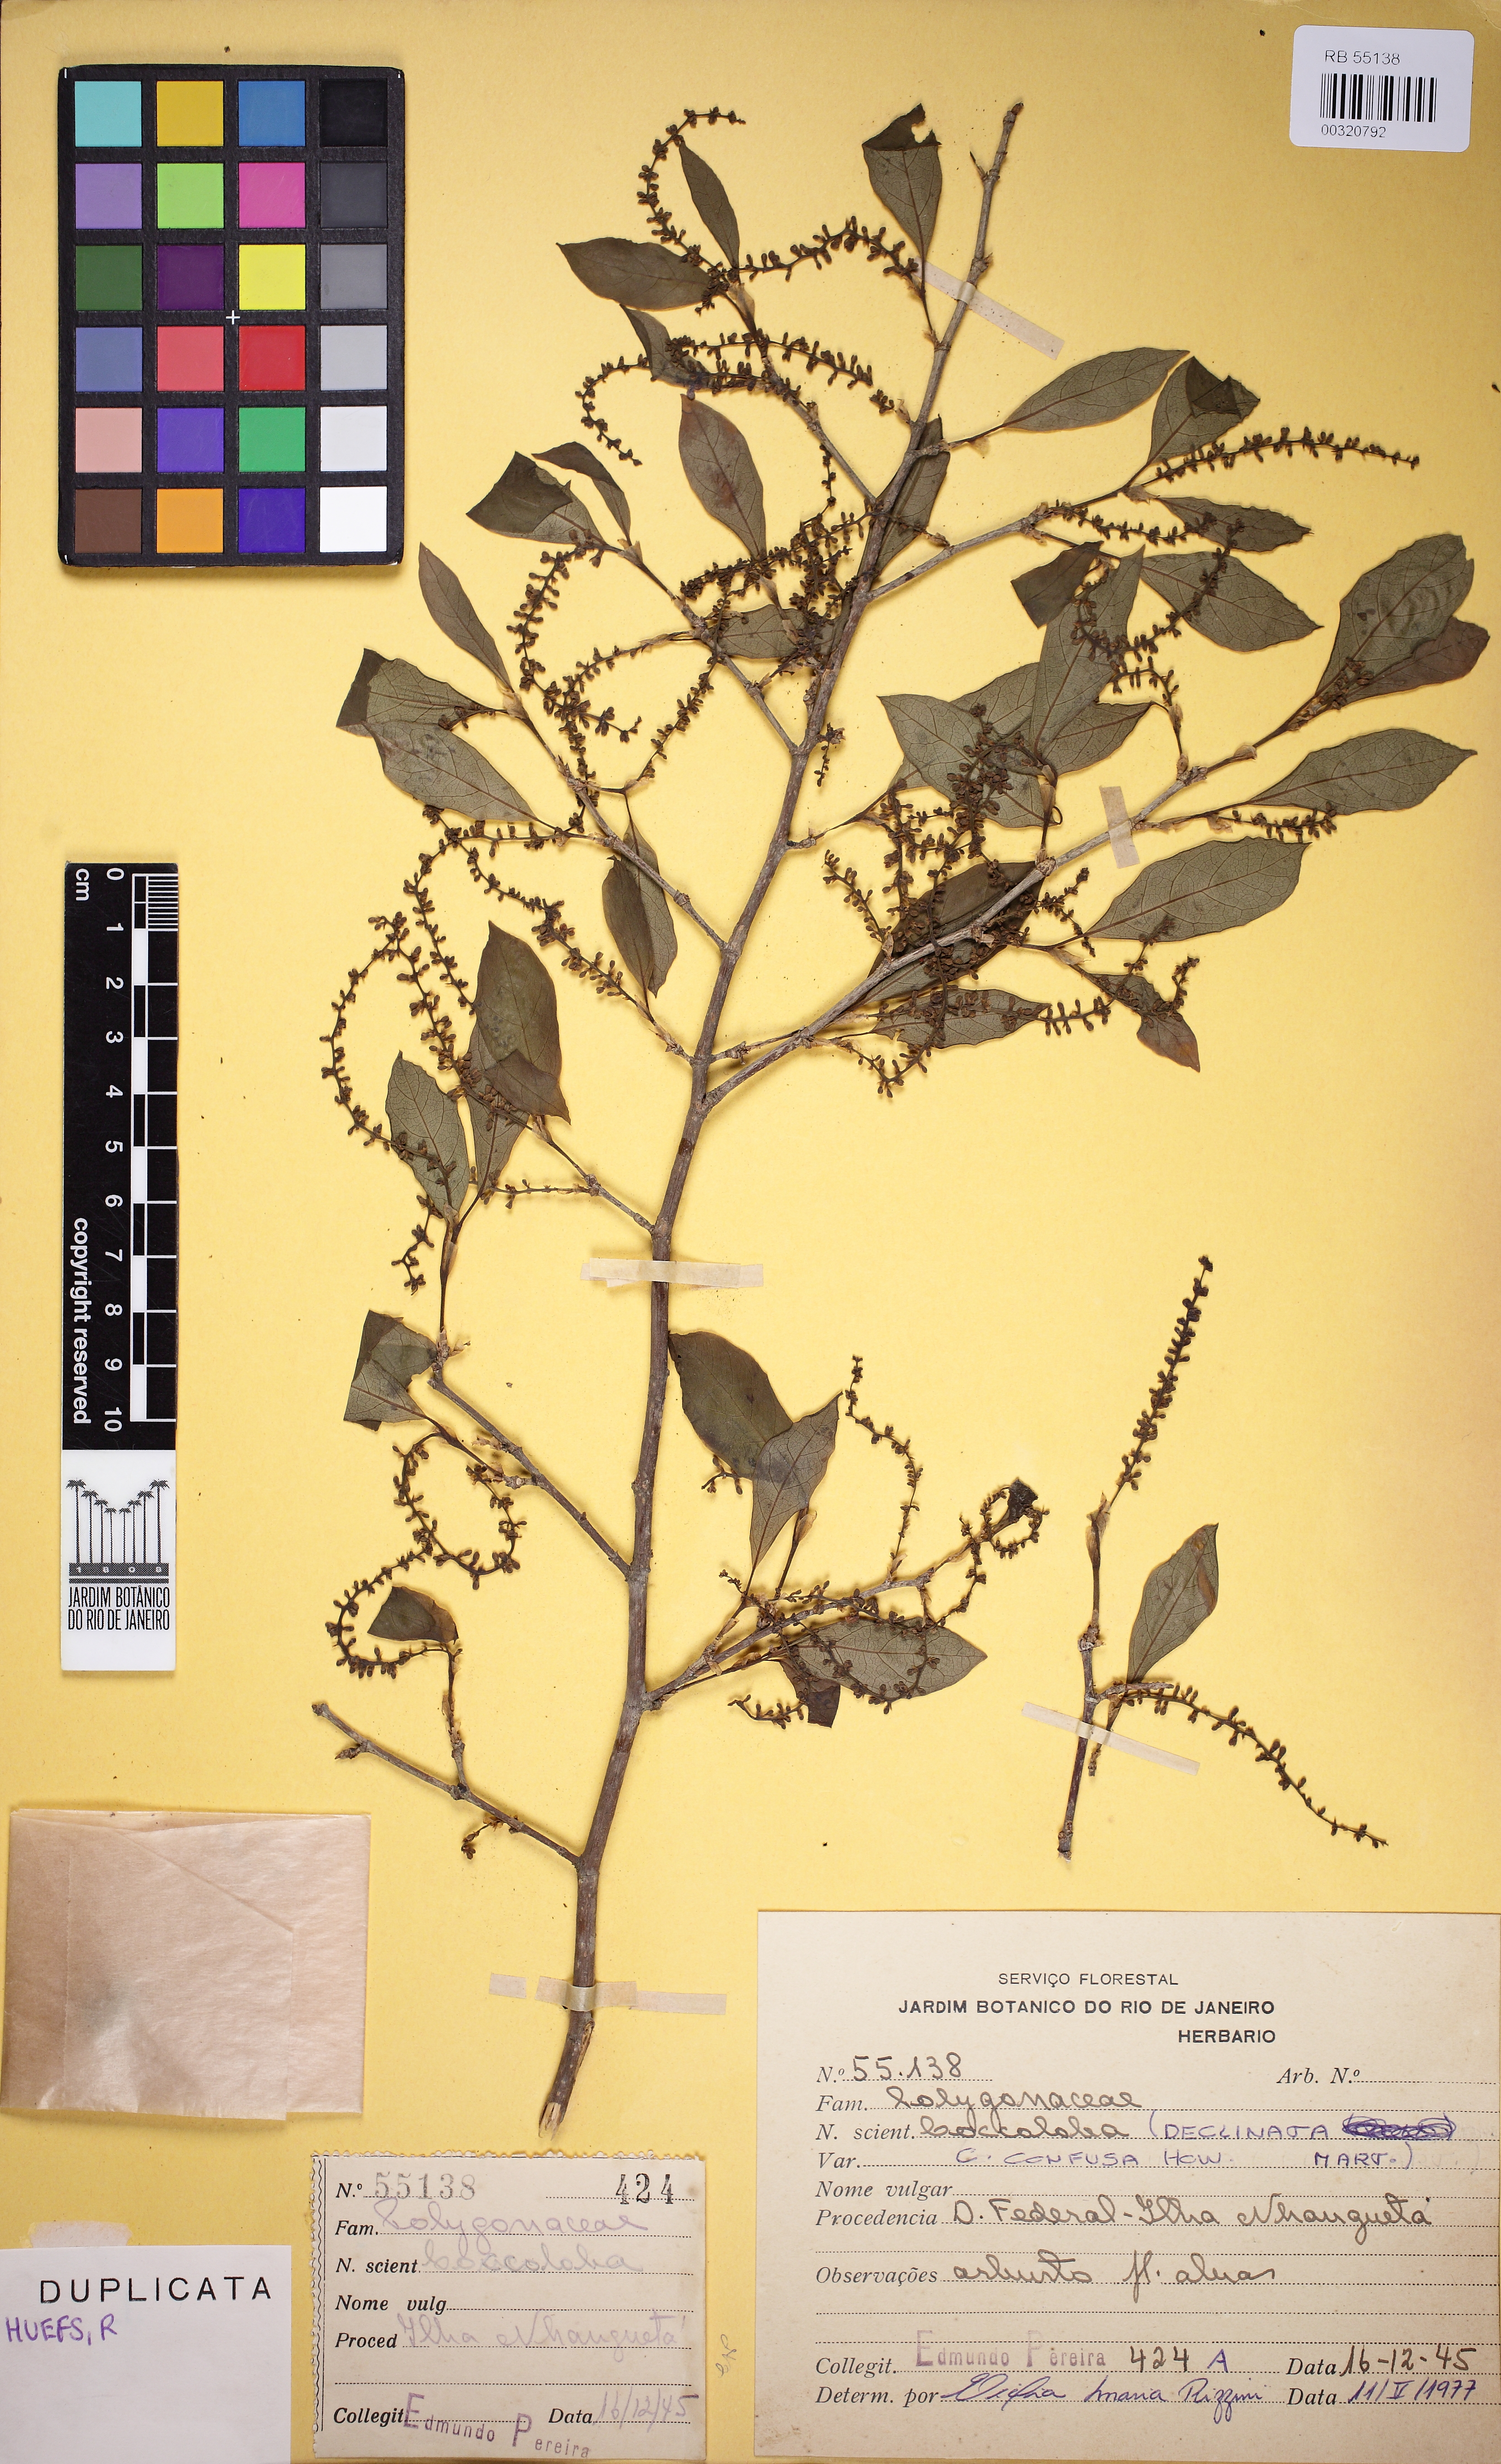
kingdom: Plantae
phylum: Tracheophyta
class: Magnoliopsida
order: Caryophyllales
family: Polygonaceae
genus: Coccoloba
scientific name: Coccoloba declinata
